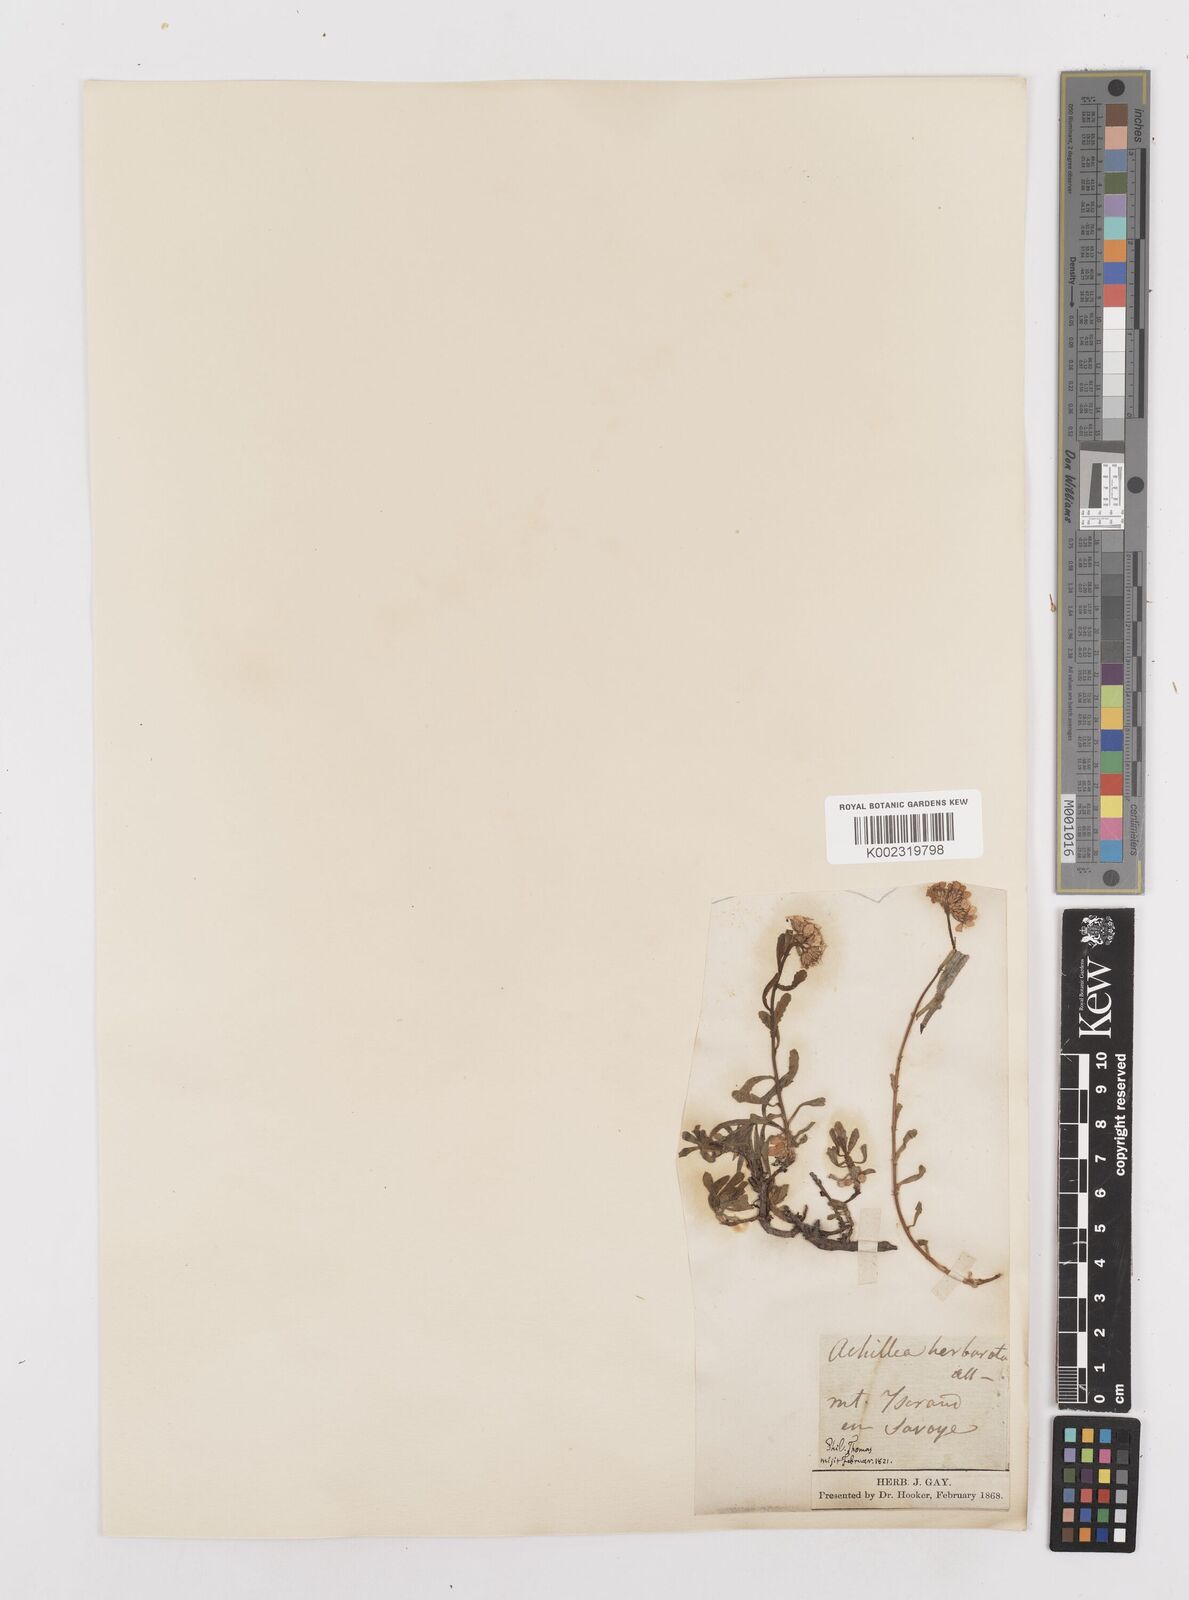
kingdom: Plantae
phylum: Tracheophyta
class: Magnoliopsida
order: Asterales
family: Asteraceae
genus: Achillea
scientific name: Achillea erba-rotta
